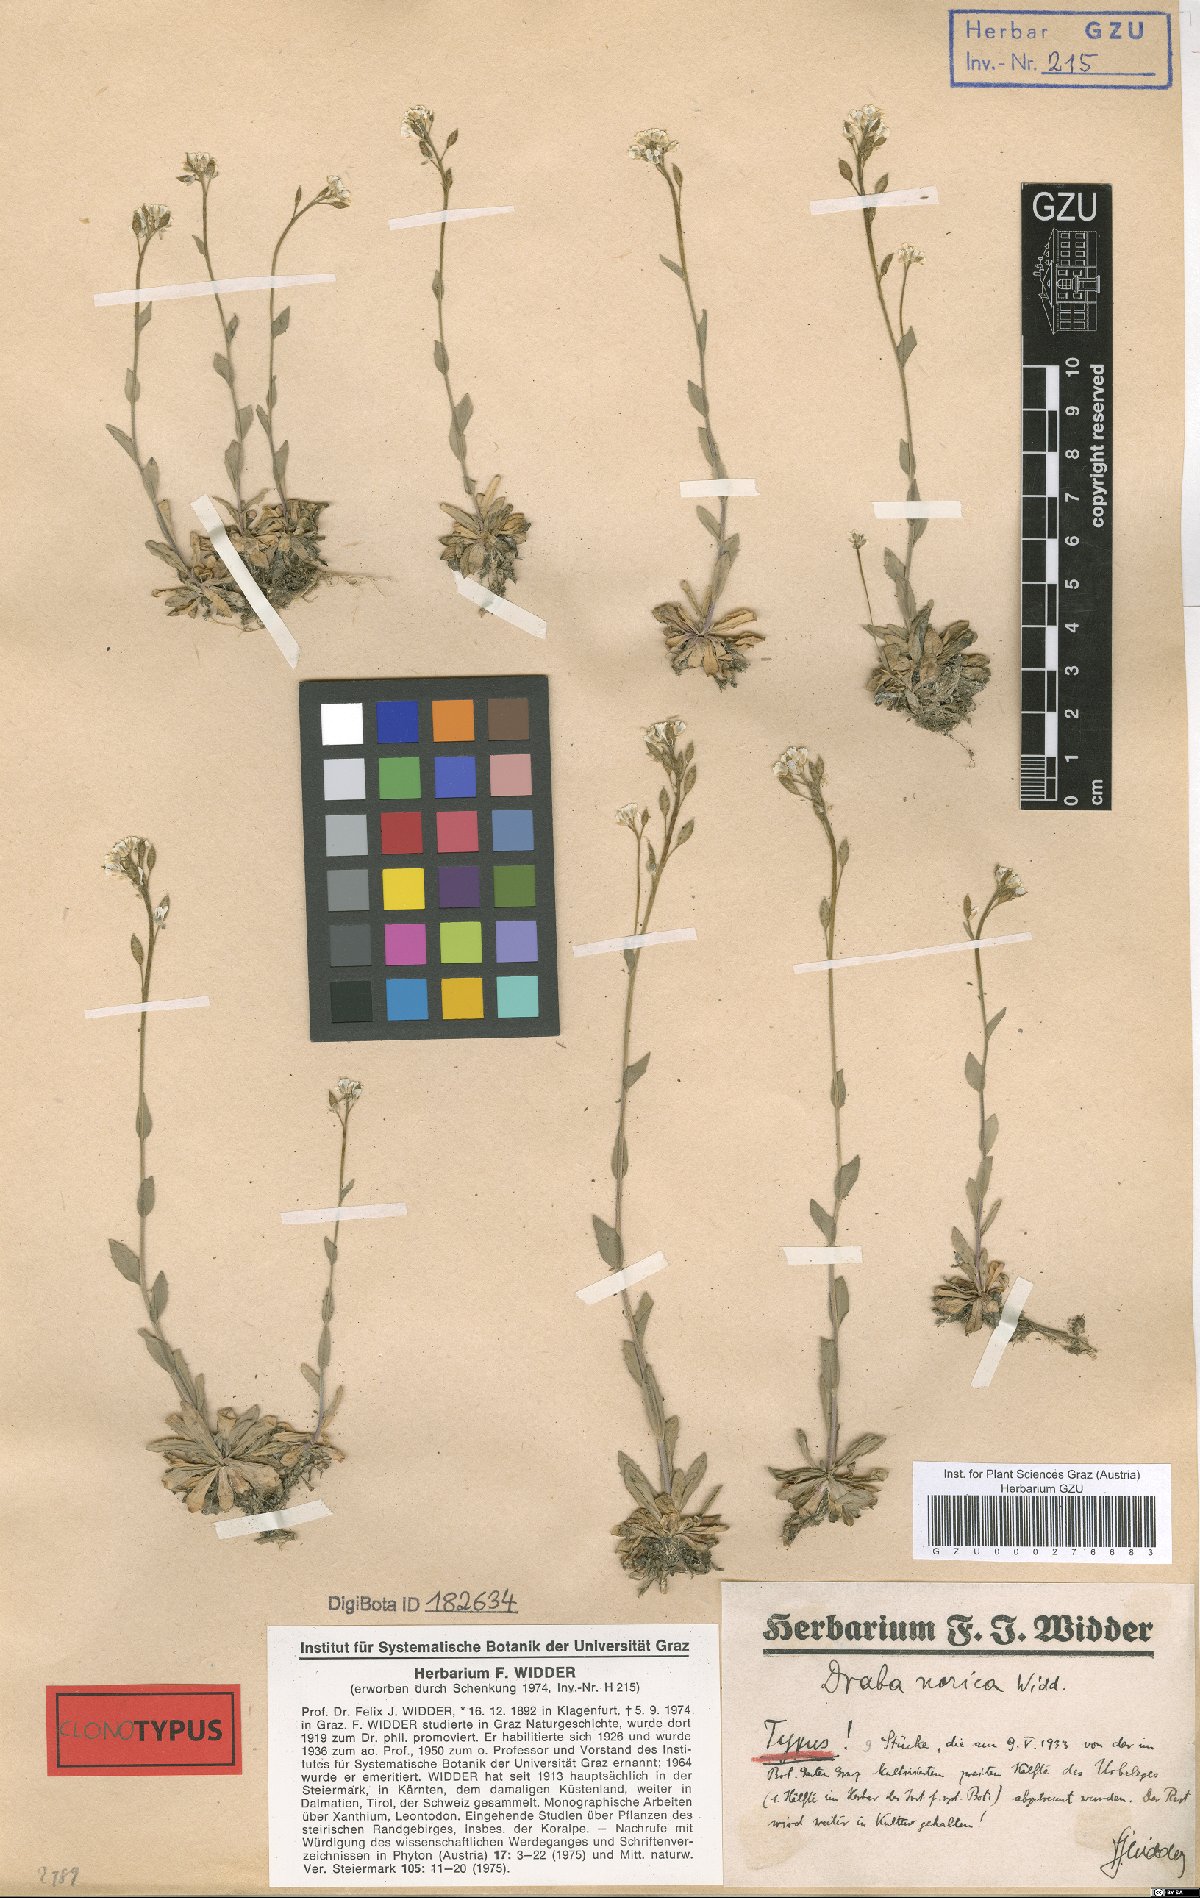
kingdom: Plantae
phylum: Tracheophyta
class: Magnoliopsida
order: Brassicales
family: Brassicaceae
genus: Draba
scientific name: Draba pacheri
